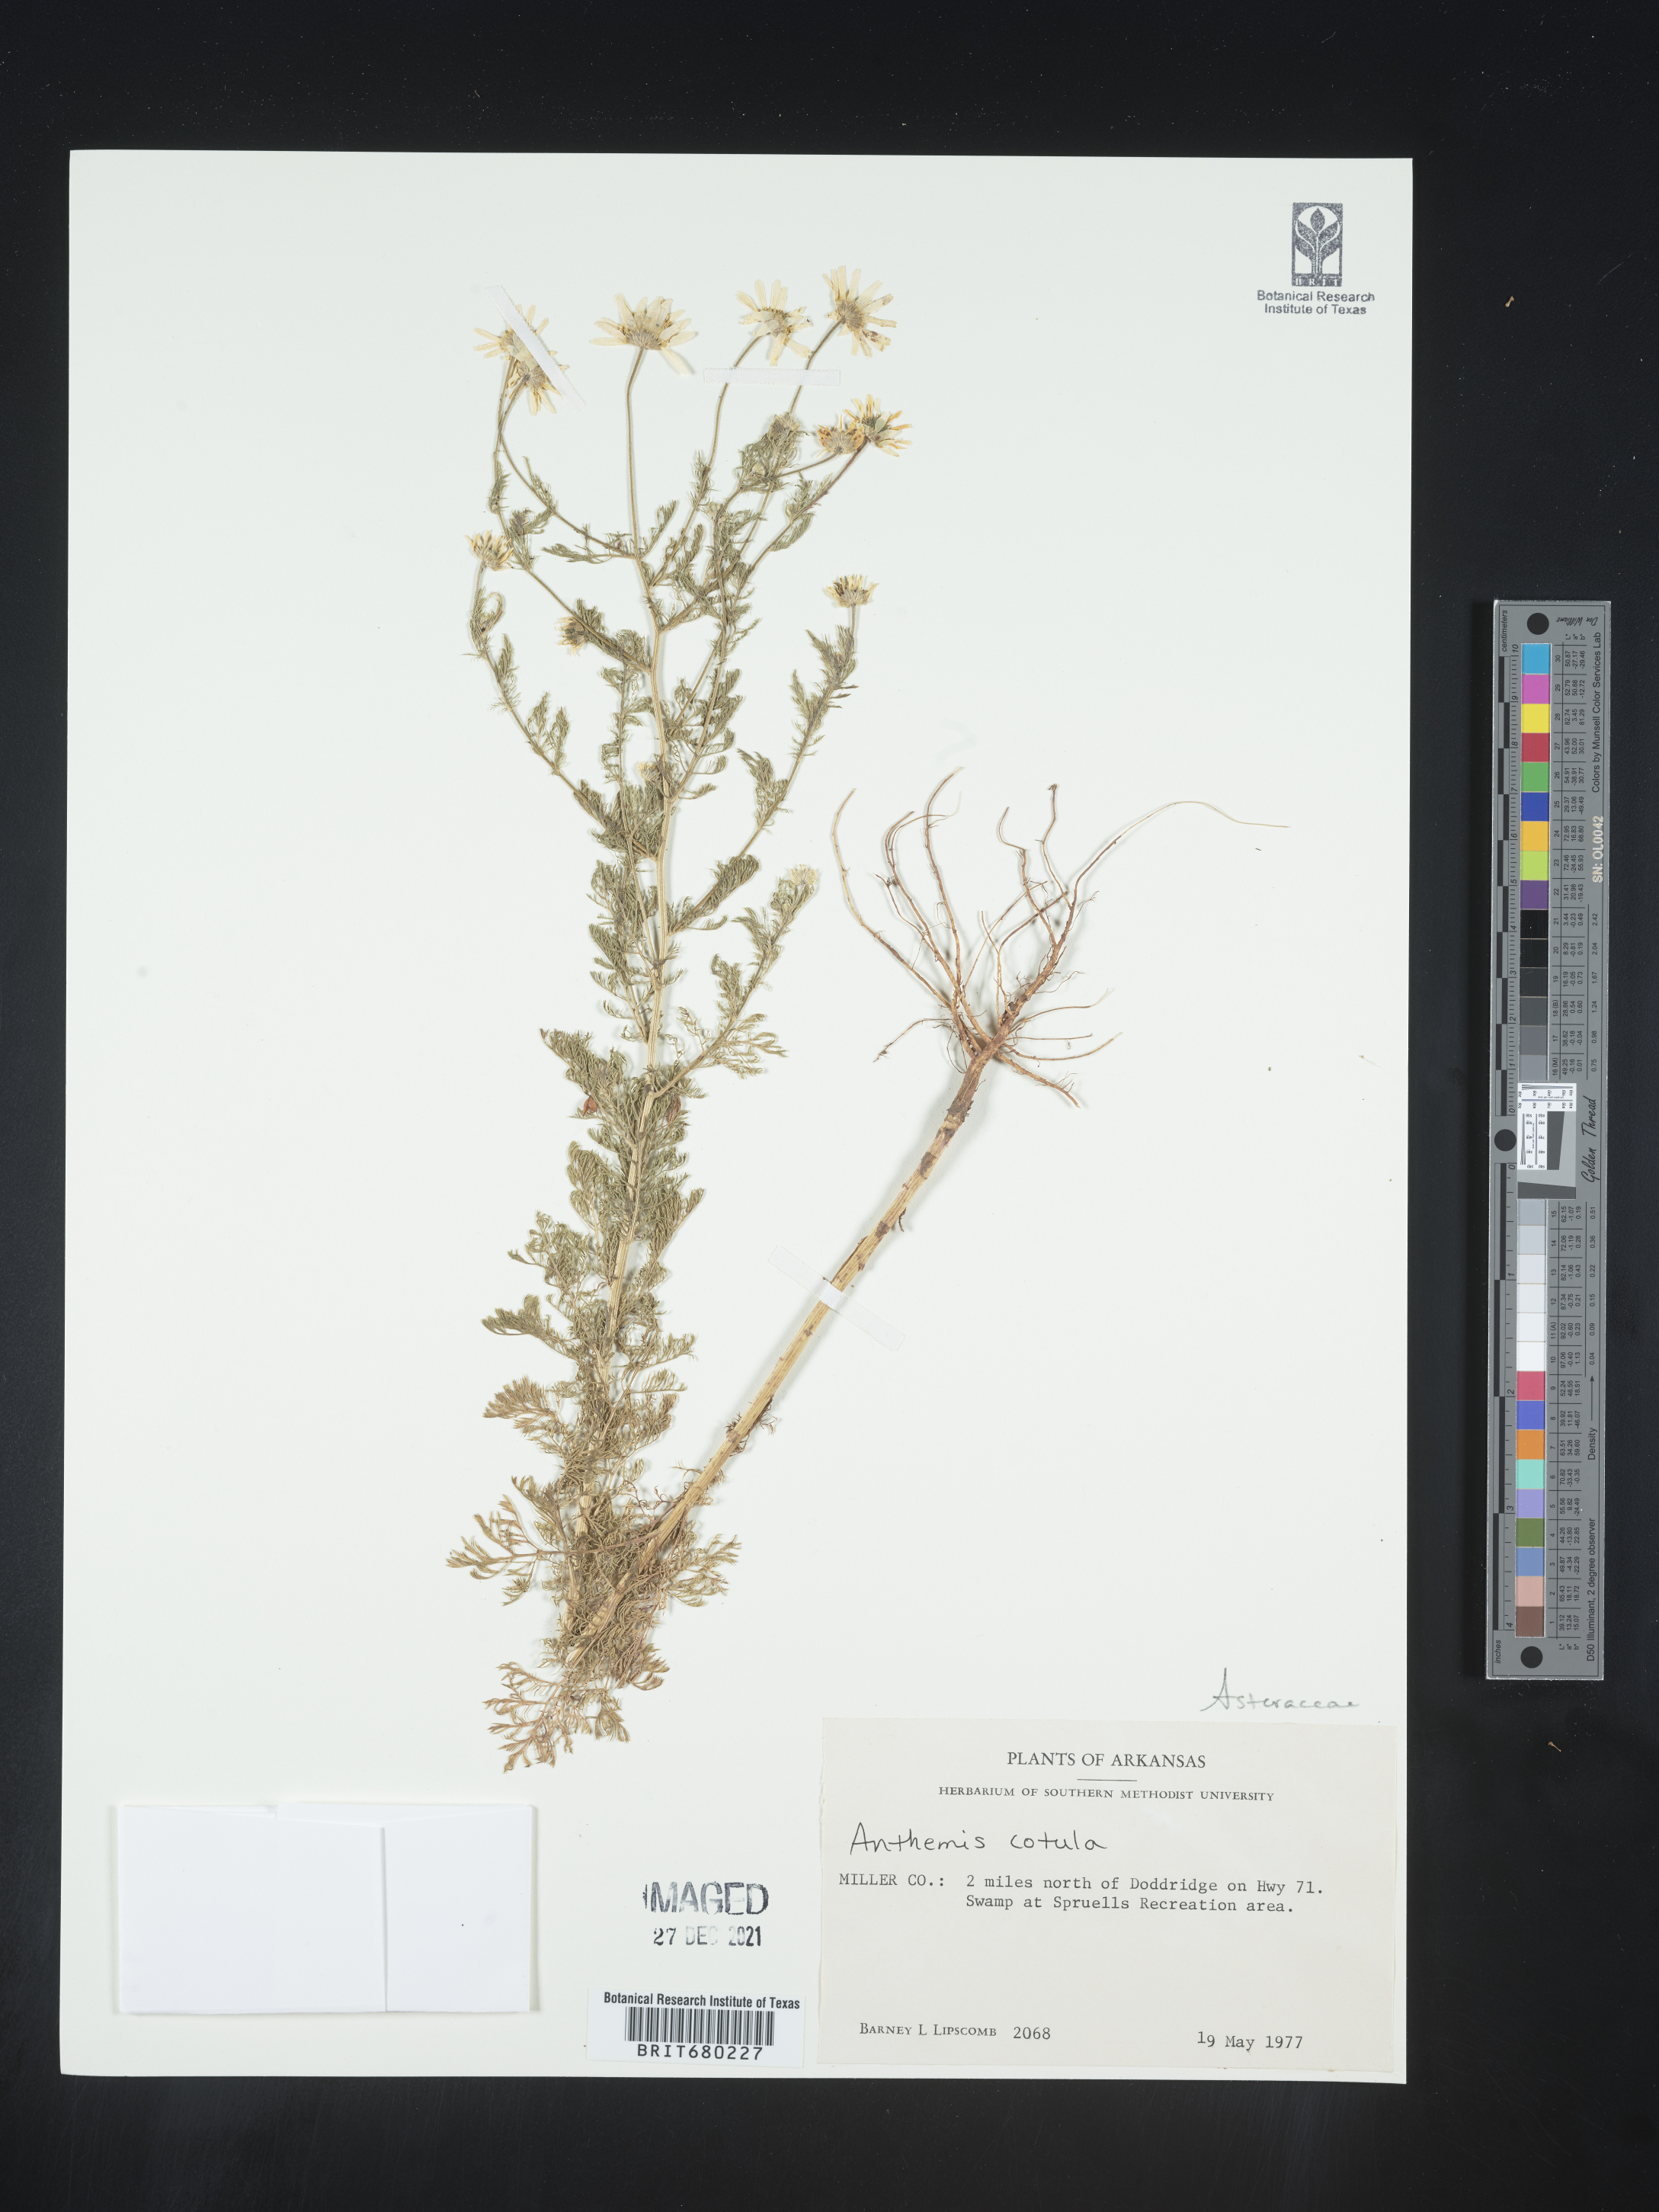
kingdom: Plantae
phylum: Tracheophyta
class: Magnoliopsida
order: Asterales
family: Asteraceae
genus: Anthemis
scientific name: Anthemis cotula
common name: Stinking chamomile
